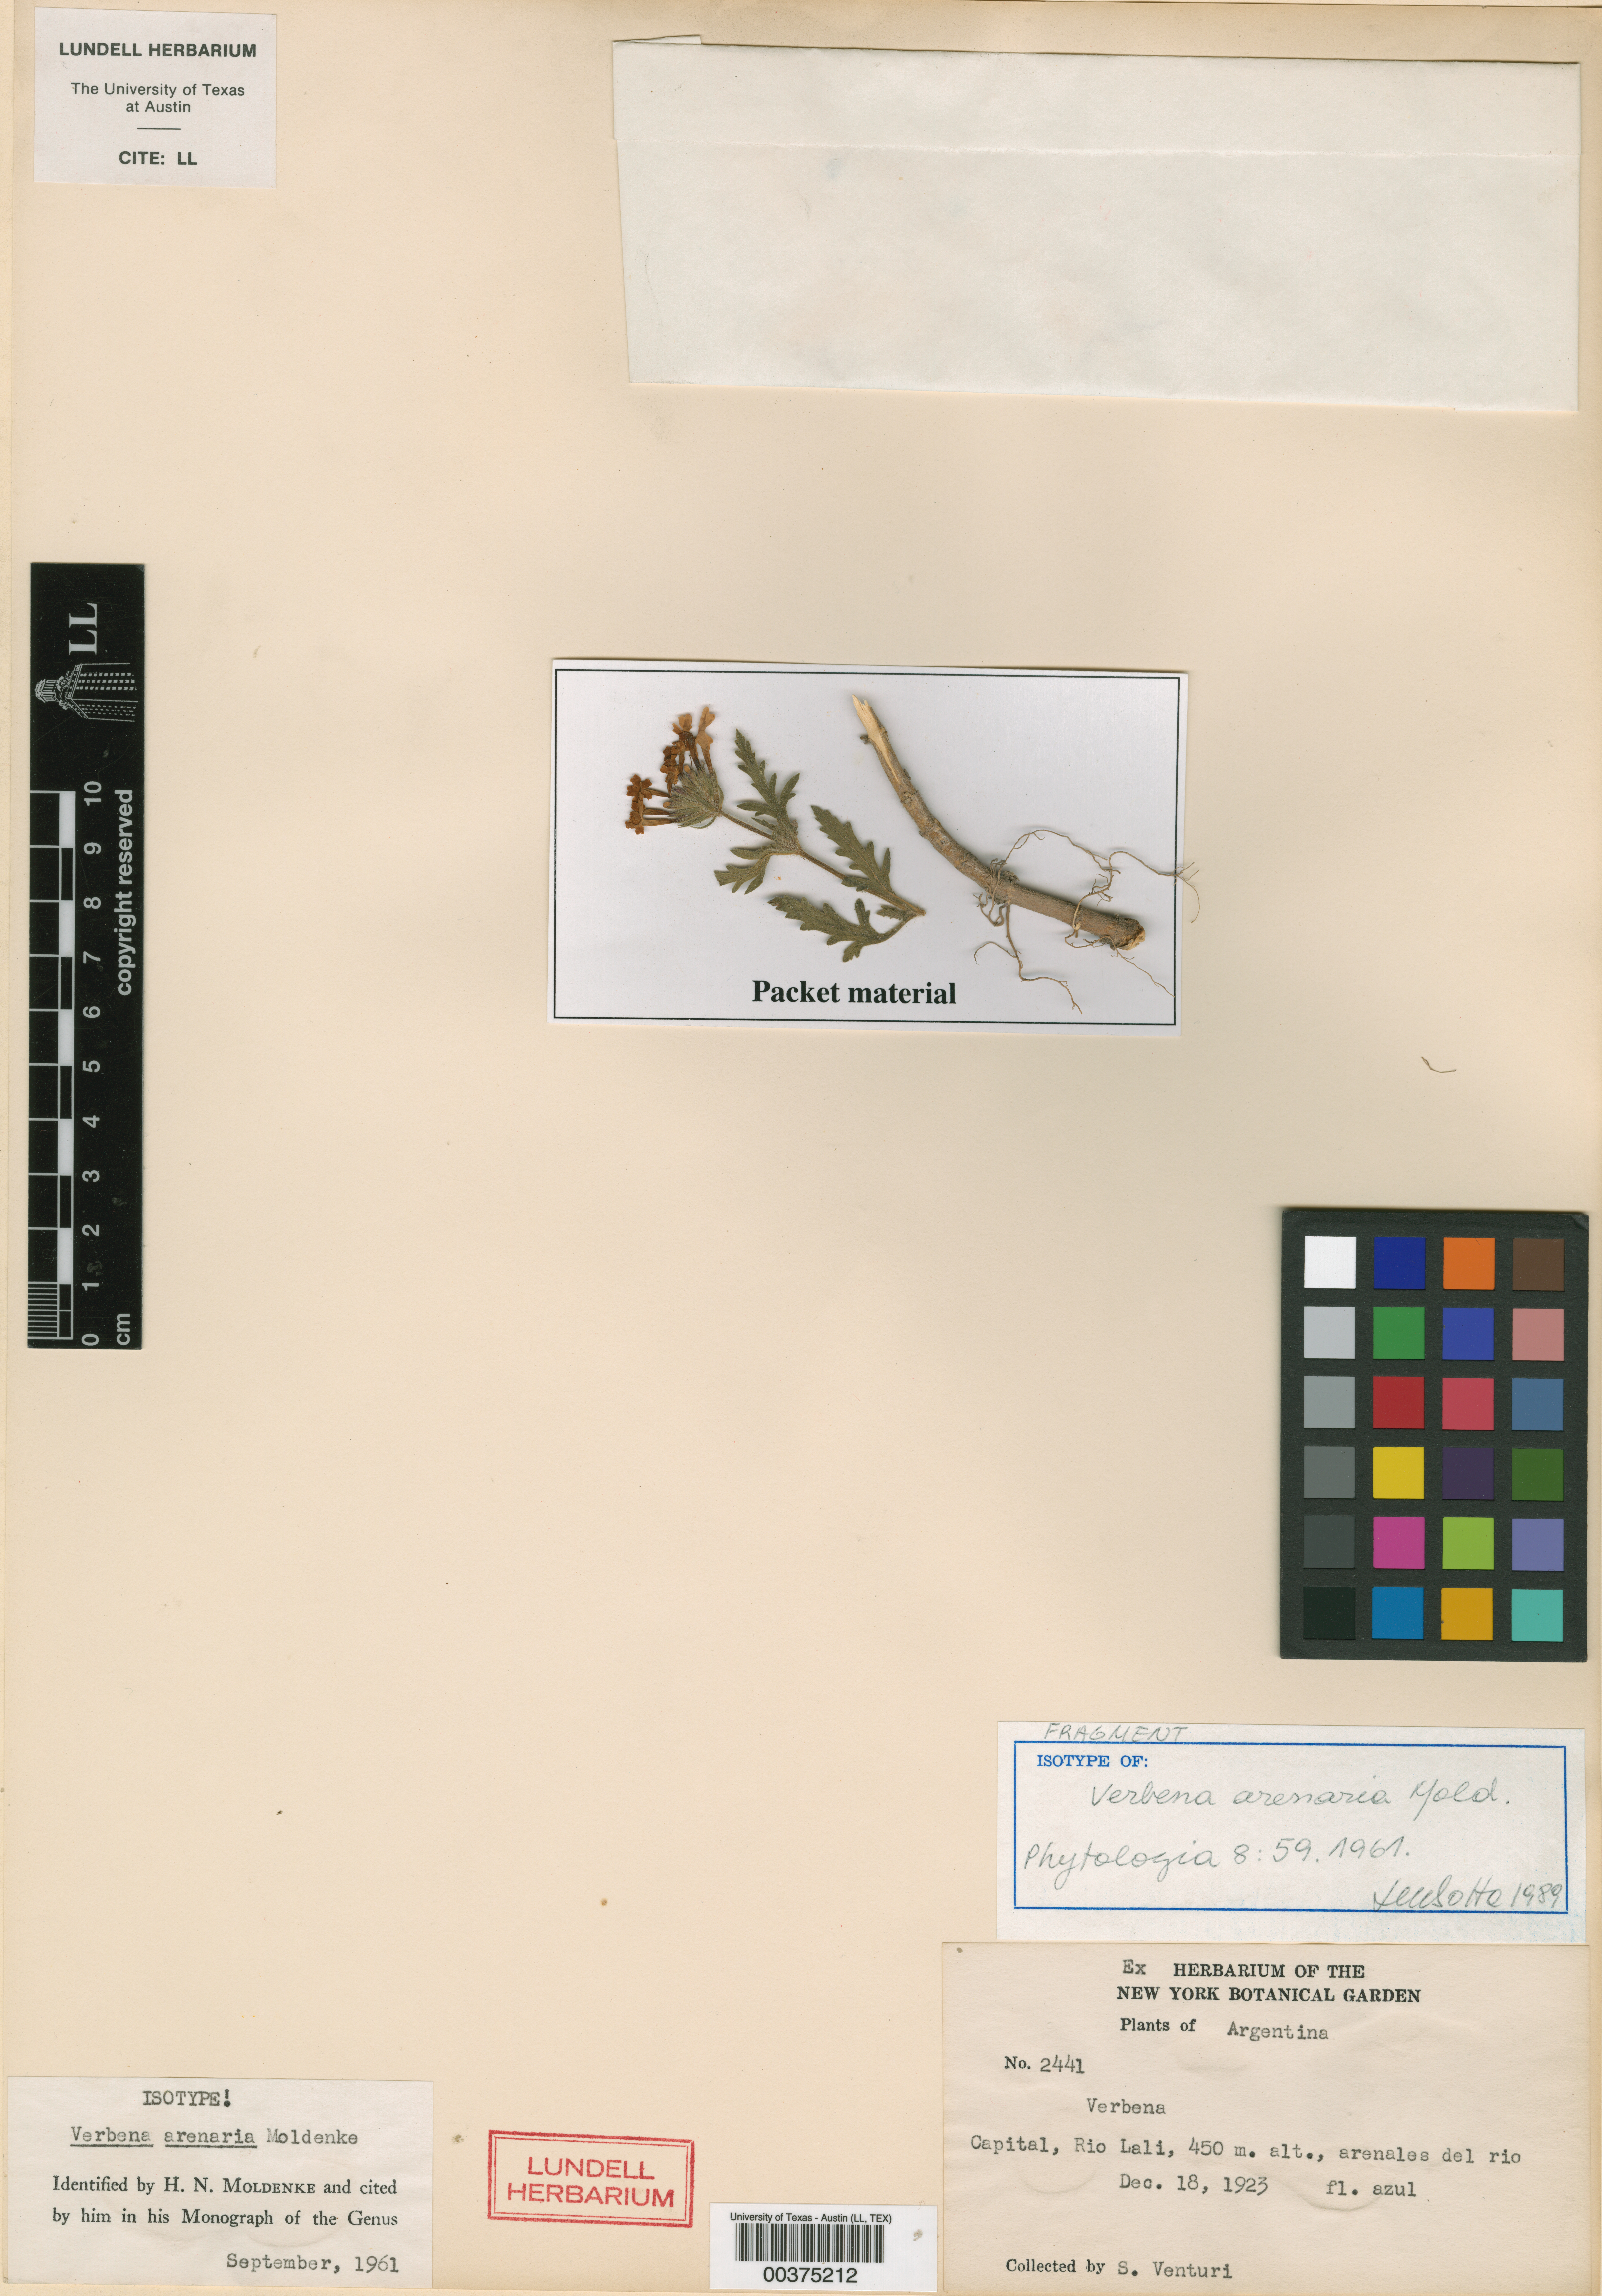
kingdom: Plantae
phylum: Tracheophyta
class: Magnoliopsida
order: Lamiales
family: Verbenaceae
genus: Verbena
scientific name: Verbena venturii
